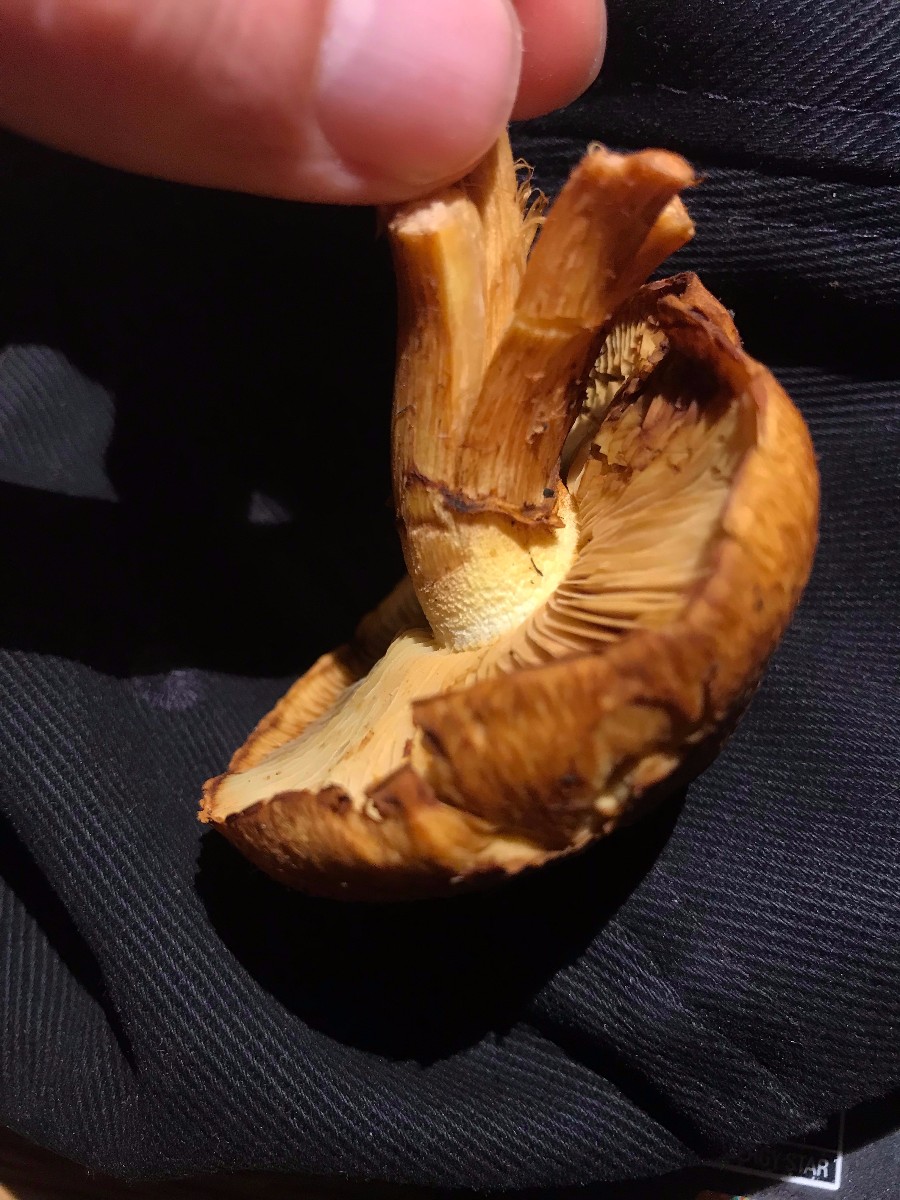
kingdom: Fungi
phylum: Basidiomycota
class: Agaricomycetes
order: Agaricales
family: Hymenogastraceae
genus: Gymnopilus
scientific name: Gymnopilus spectabilis
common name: fibret flammehat
